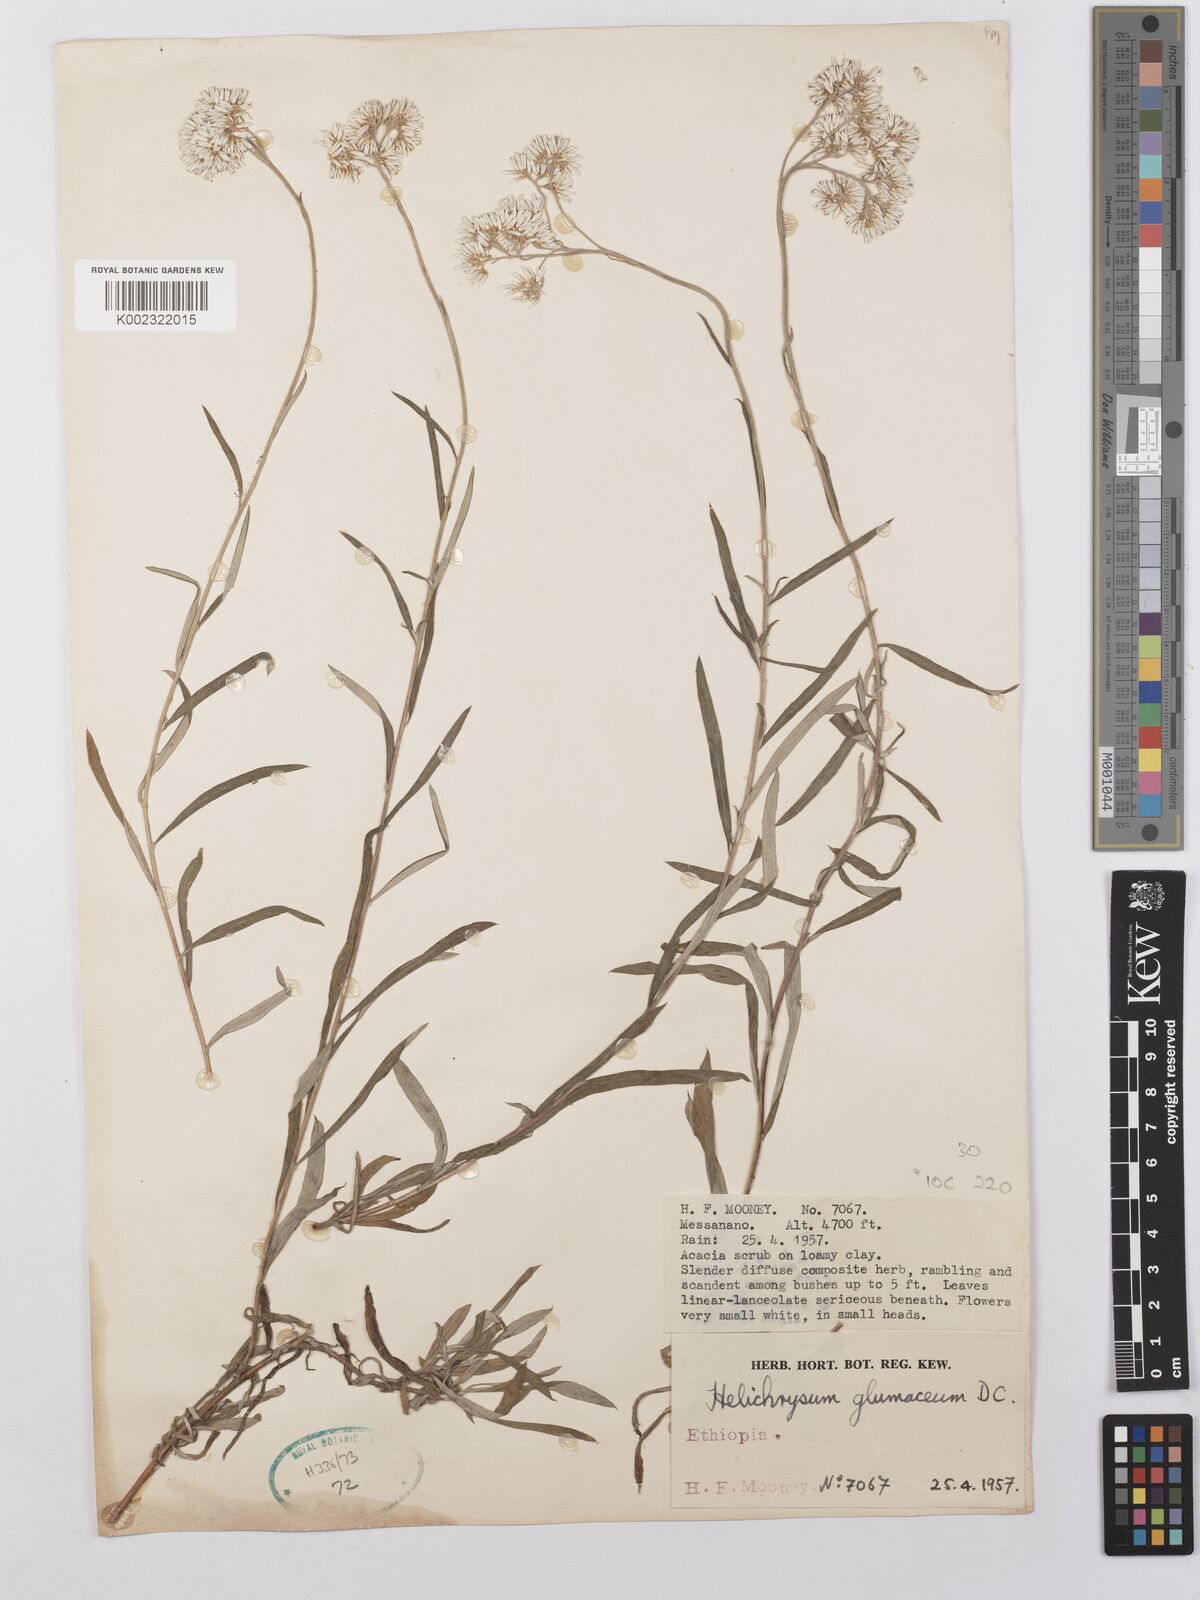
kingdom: Plantae
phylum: Tracheophyta
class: Magnoliopsida
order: Asterales
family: Asteraceae
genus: Helichrysum
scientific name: Helichrysum glumaceum
